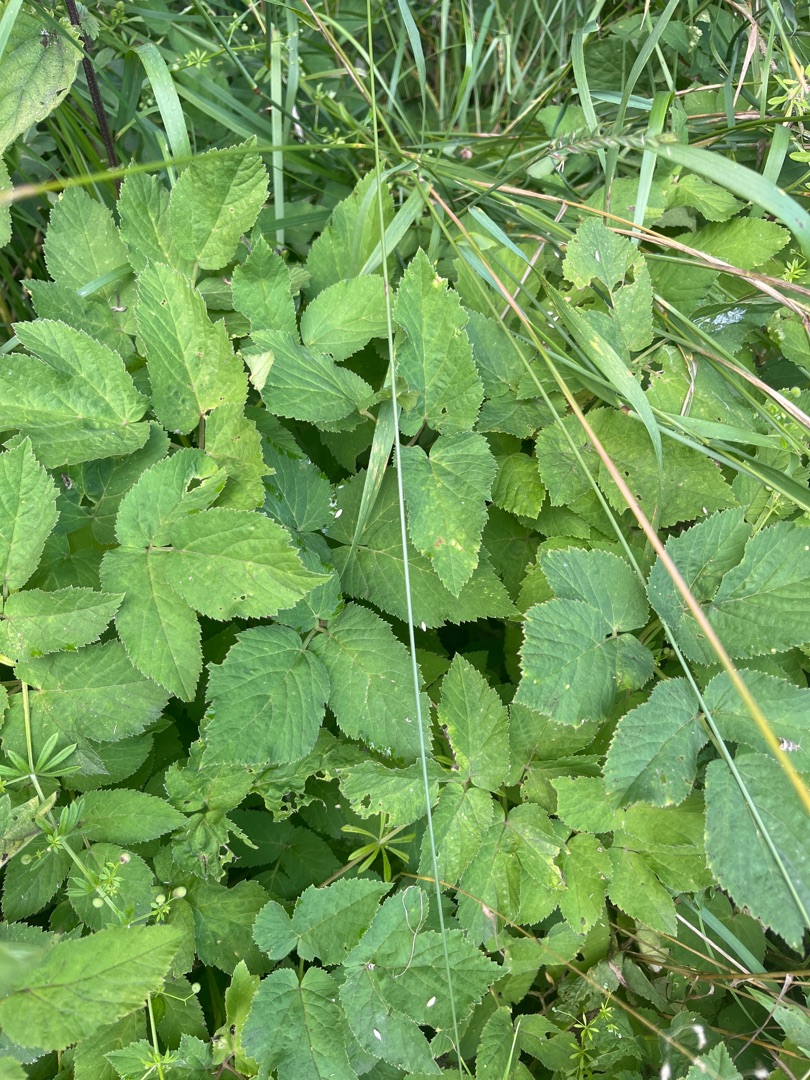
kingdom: Plantae
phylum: Tracheophyta
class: Magnoliopsida
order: Apiales
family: Apiaceae
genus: Aegopodium
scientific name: Aegopodium podagraria
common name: Skvalderkål
